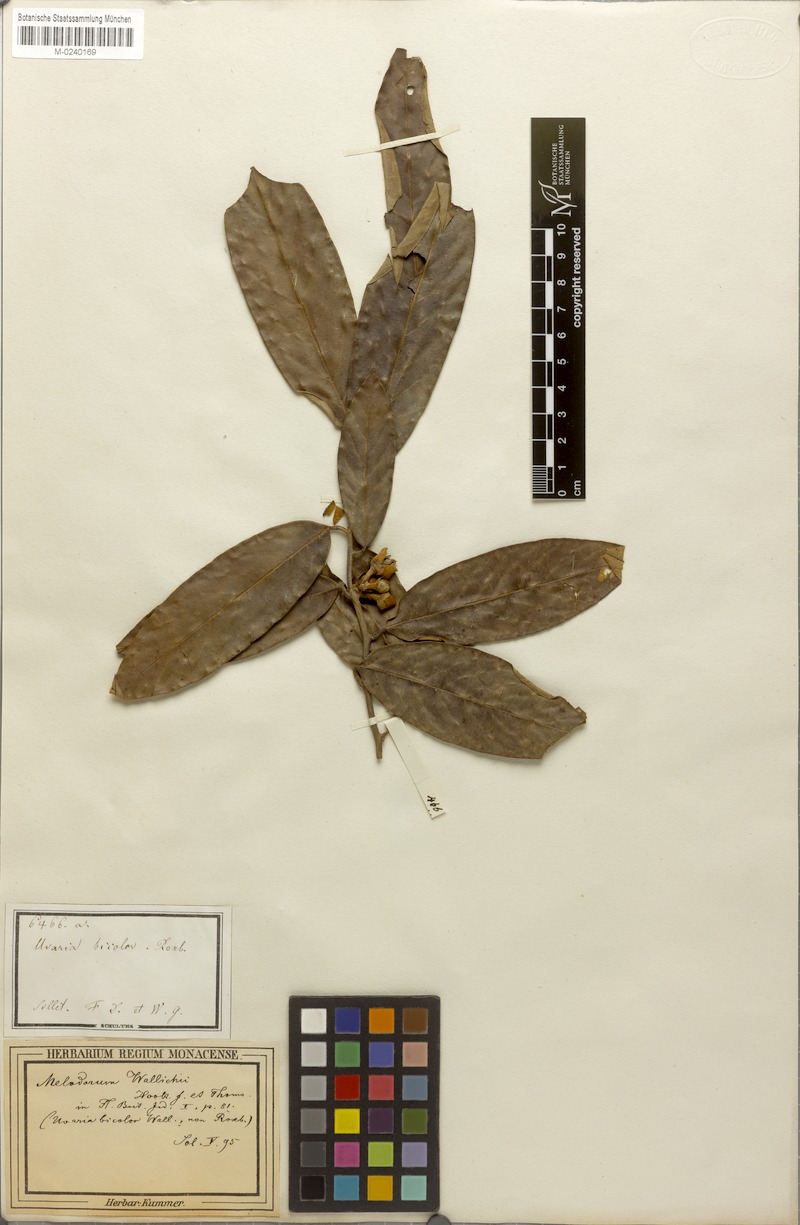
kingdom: Plantae
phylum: Tracheophyta
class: Magnoliopsida
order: Magnoliales
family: Annonaceae
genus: Fissistigma
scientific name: Fissistigma wallichii
